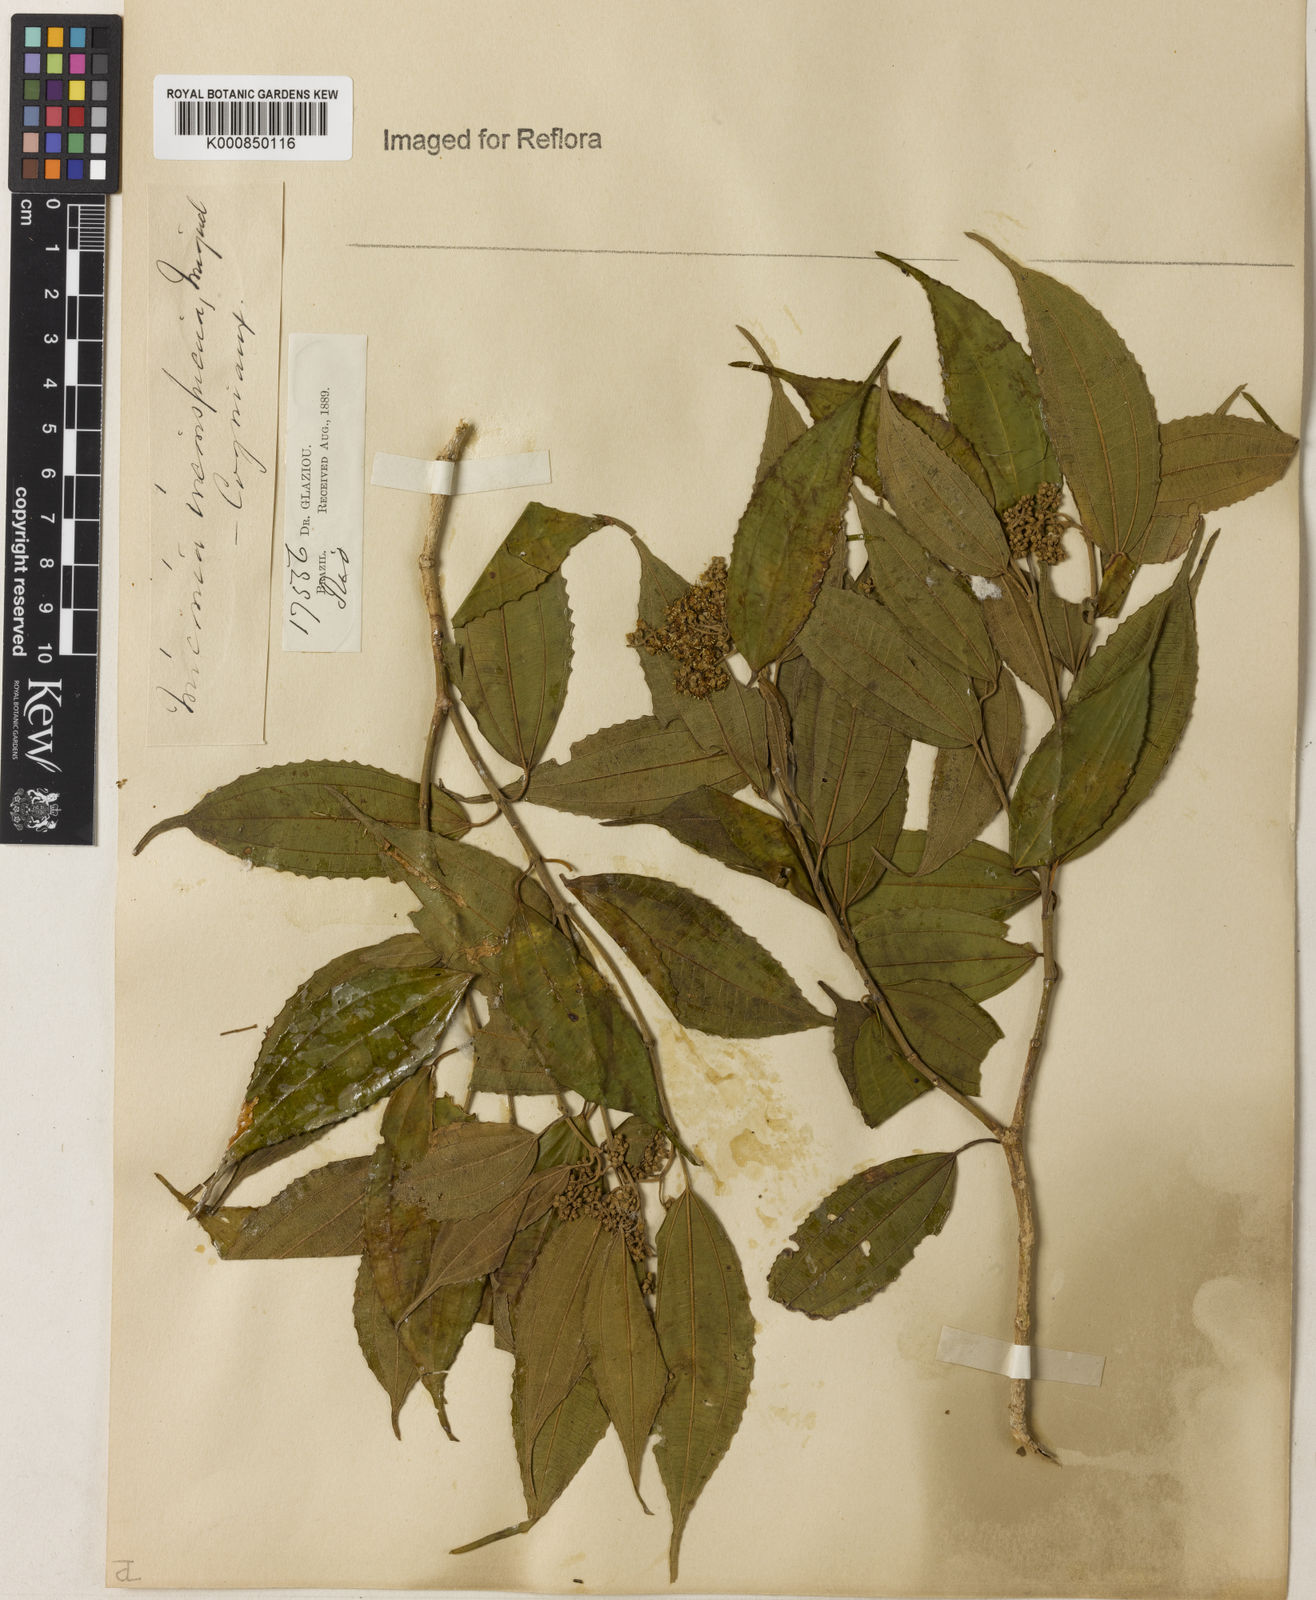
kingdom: Plantae
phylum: Tracheophyta
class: Magnoliopsida
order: Myrtales
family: Melastomataceae
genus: Miconia
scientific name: Miconia inconspicua
